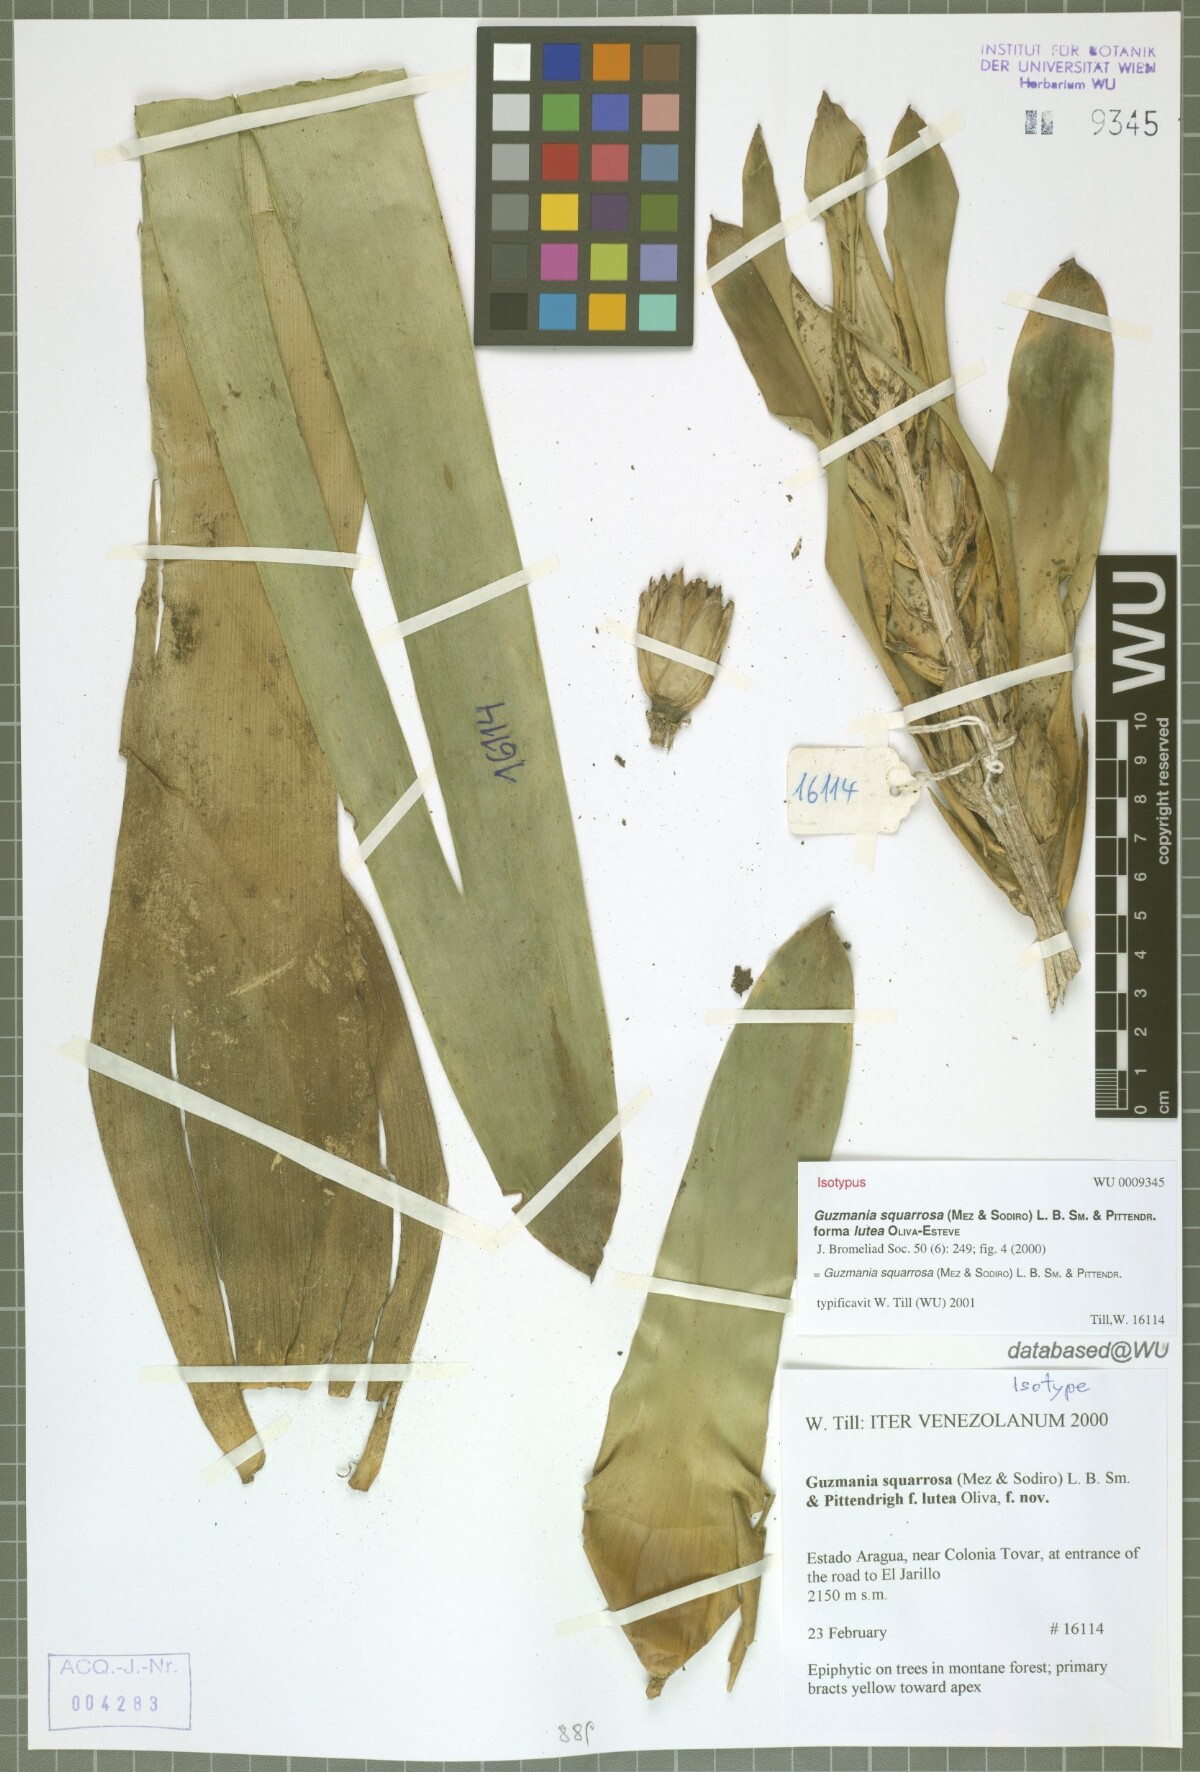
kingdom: Plantae
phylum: Tracheophyta
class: Liliopsida
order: Poales
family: Bromeliaceae
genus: Guzmania
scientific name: Guzmania squarrosa
